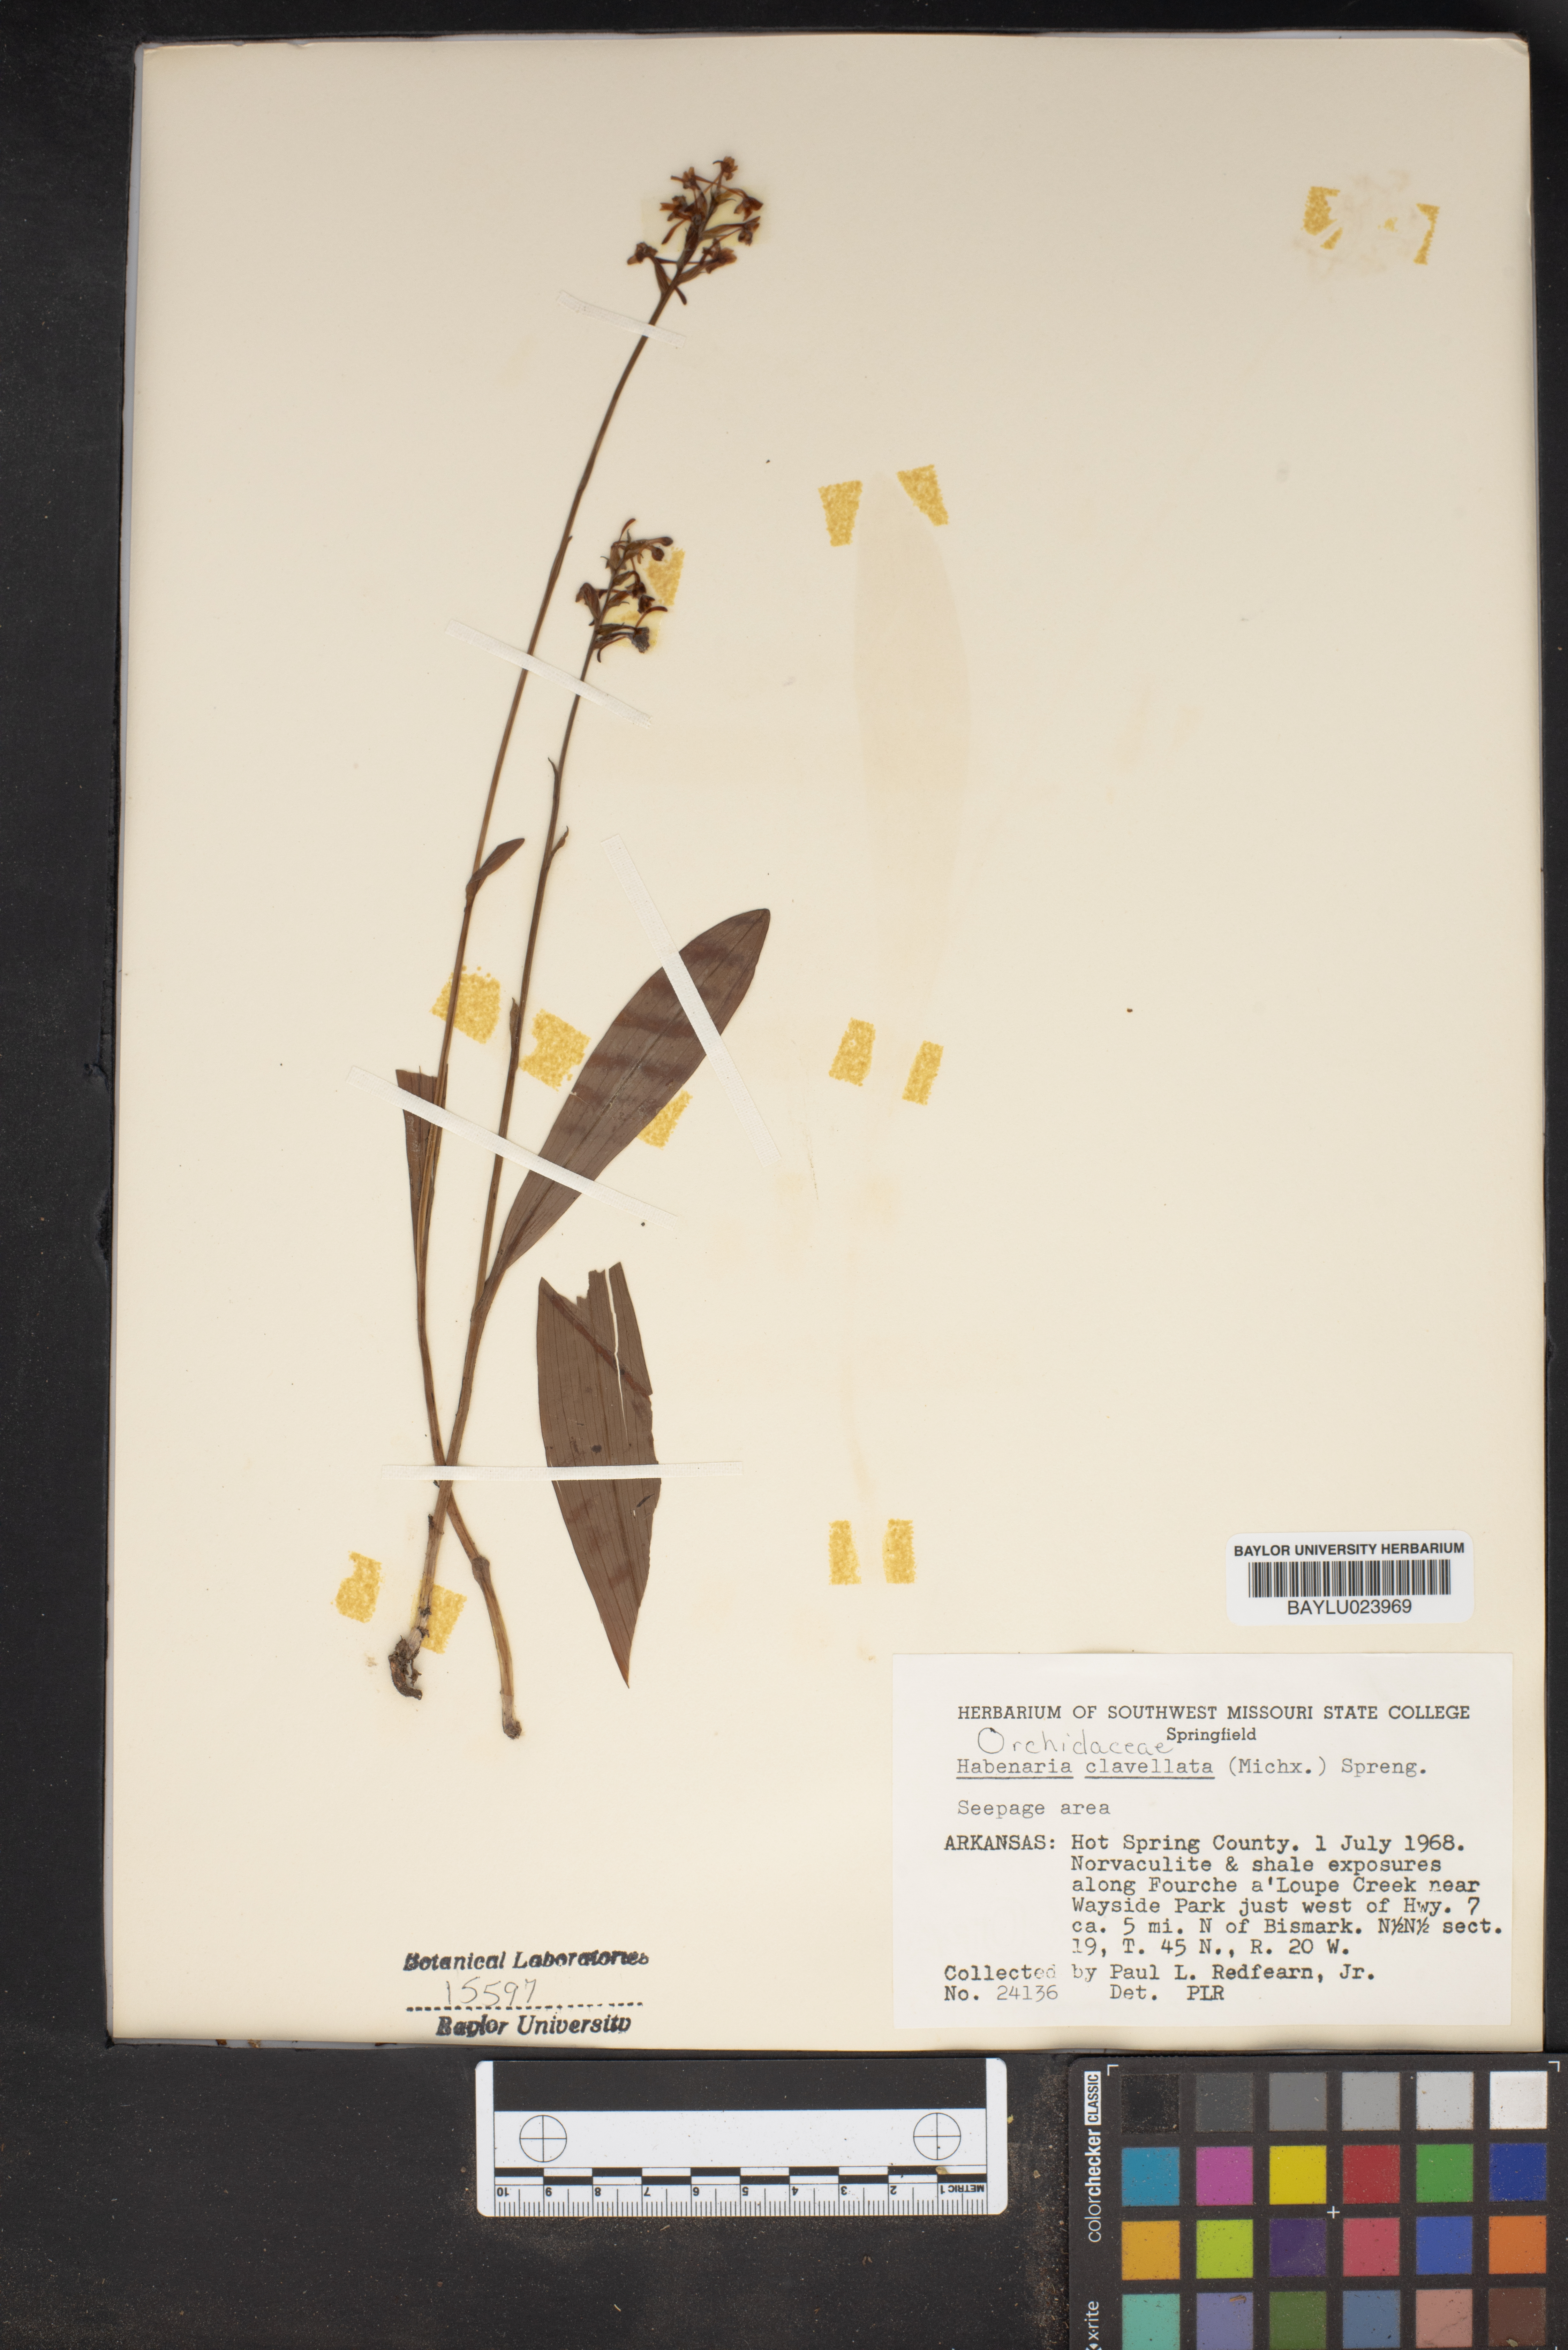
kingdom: Plantae
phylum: Tracheophyta
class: Liliopsida
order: Asparagales
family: Orchidaceae
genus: Platanthera
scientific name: Platanthera clavellata
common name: Club-spur orchid
